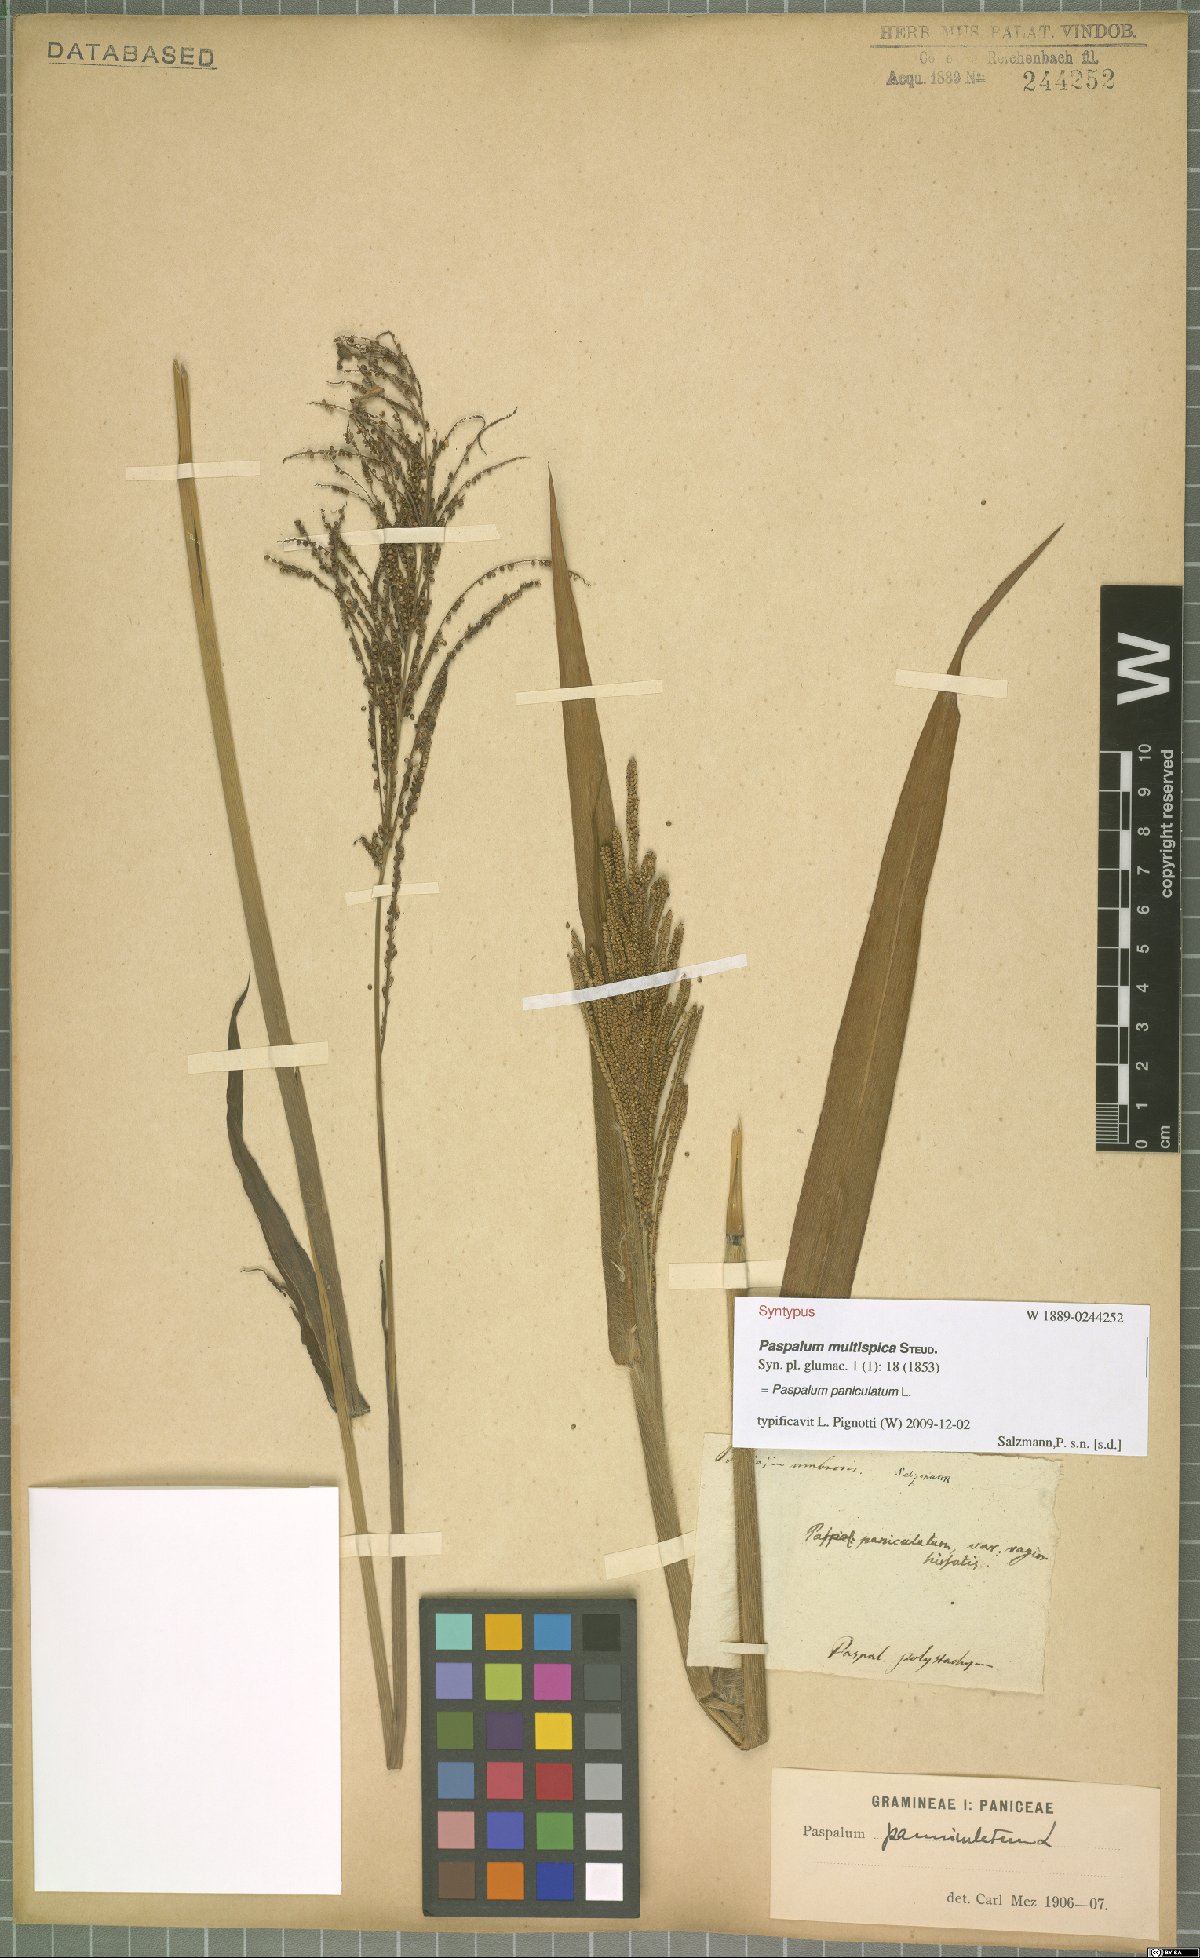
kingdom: Plantae
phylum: Tracheophyta
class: Liliopsida
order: Poales
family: Poaceae
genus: Paspalum
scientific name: Paspalum paniculatum
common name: Arrocillo
